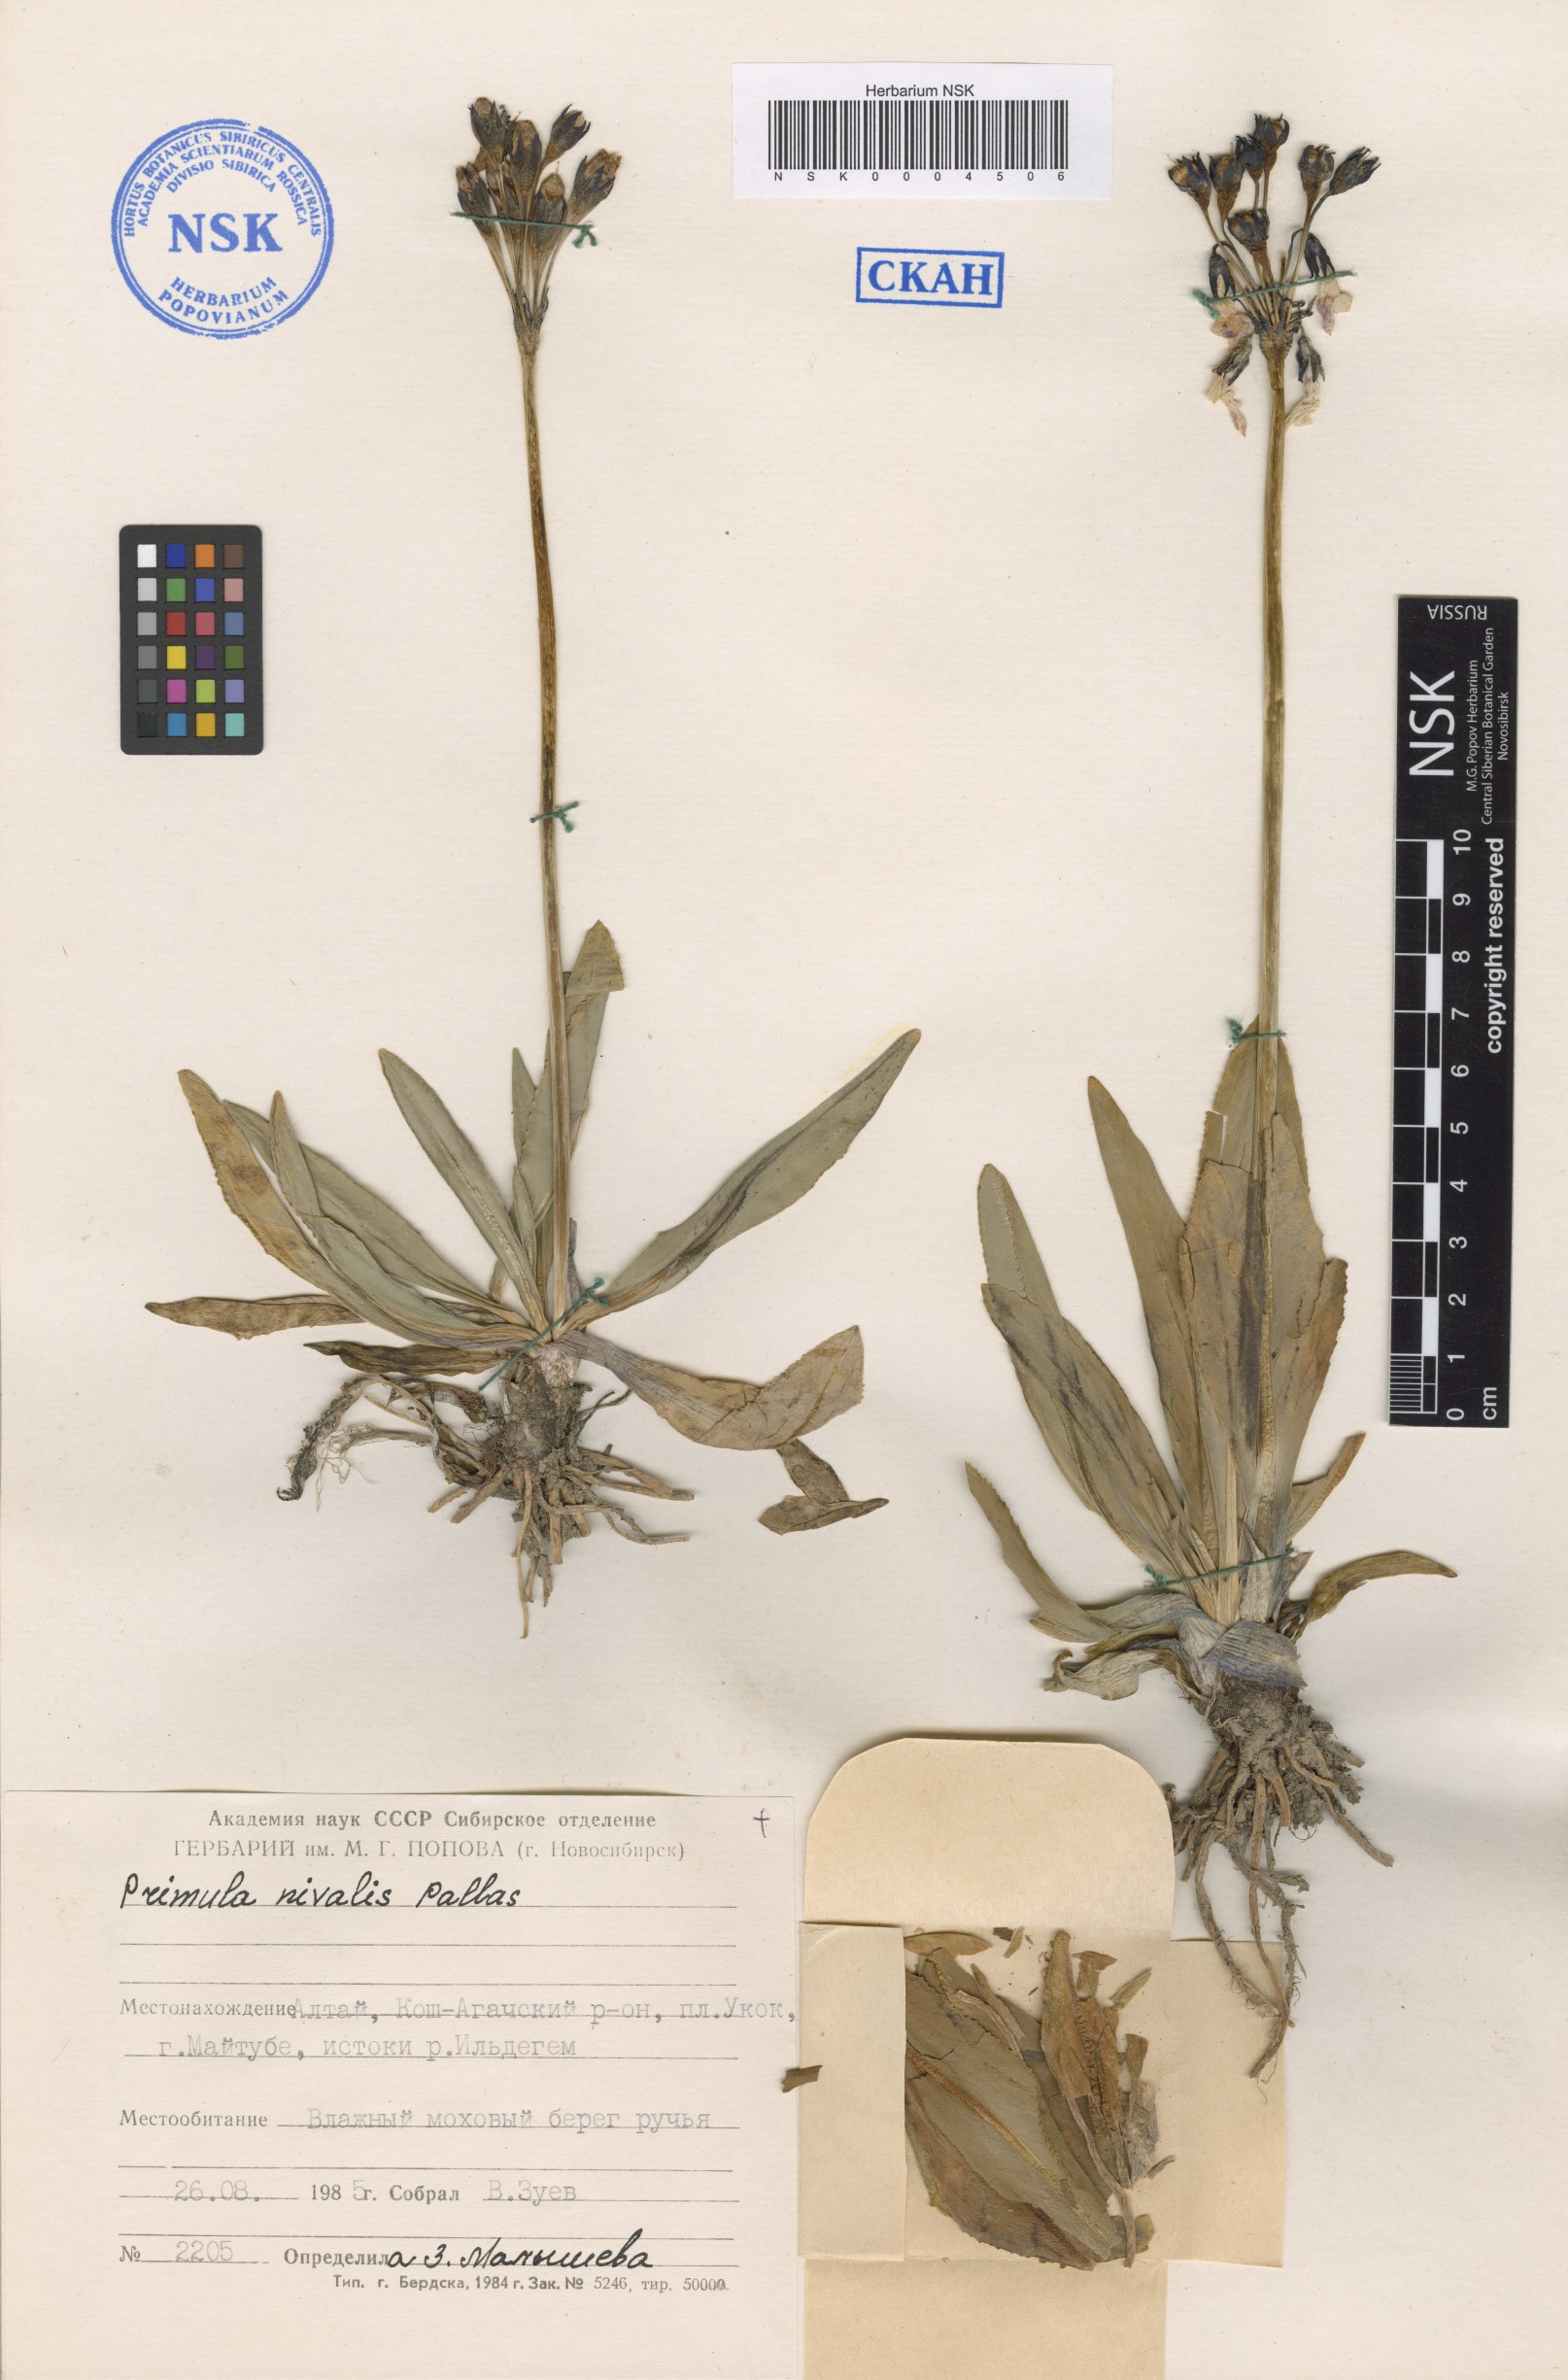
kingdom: Plantae
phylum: Tracheophyta
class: Magnoliopsida
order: Ericales
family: Primulaceae
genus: Primula
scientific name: Primula nivalis
